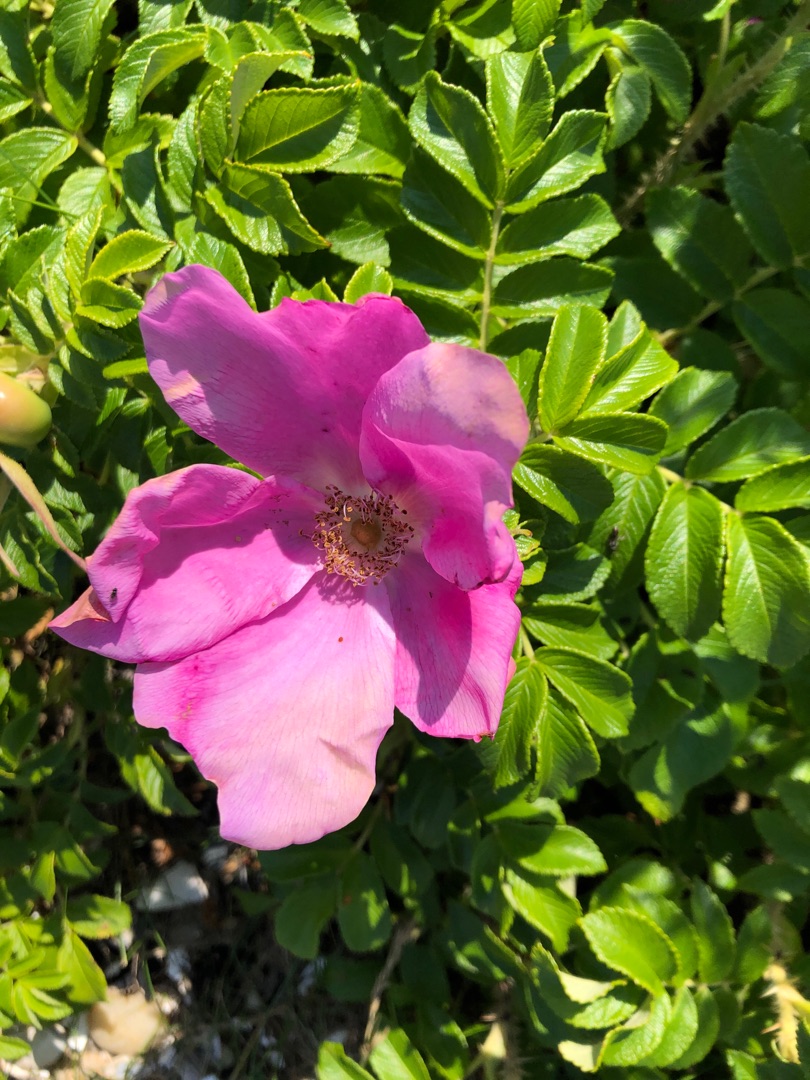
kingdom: Plantae
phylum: Tracheophyta
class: Magnoliopsida
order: Rosales
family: Rosaceae
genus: Rosa
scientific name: Rosa rugosa
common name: Rynket rose
